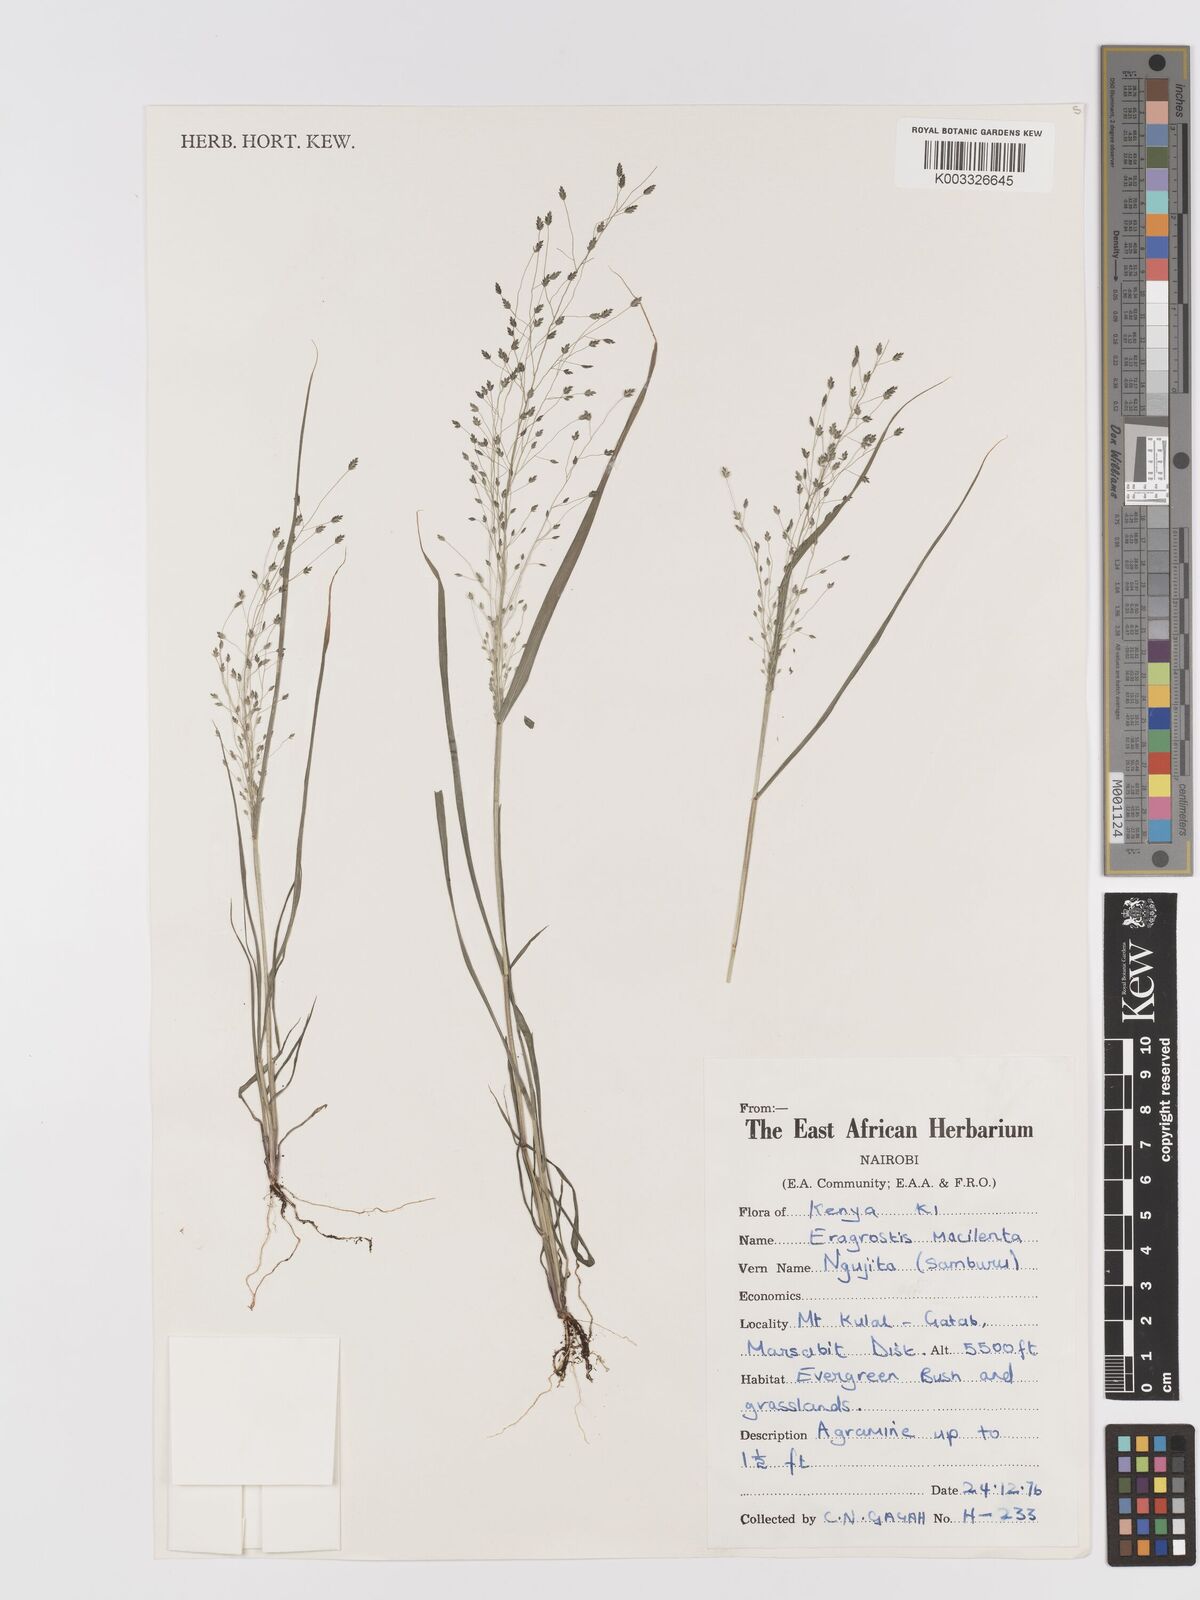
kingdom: Plantae
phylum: Tracheophyta
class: Liliopsida
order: Poales
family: Poaceae
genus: Eragrostis
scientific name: Eragrostis macilenta
